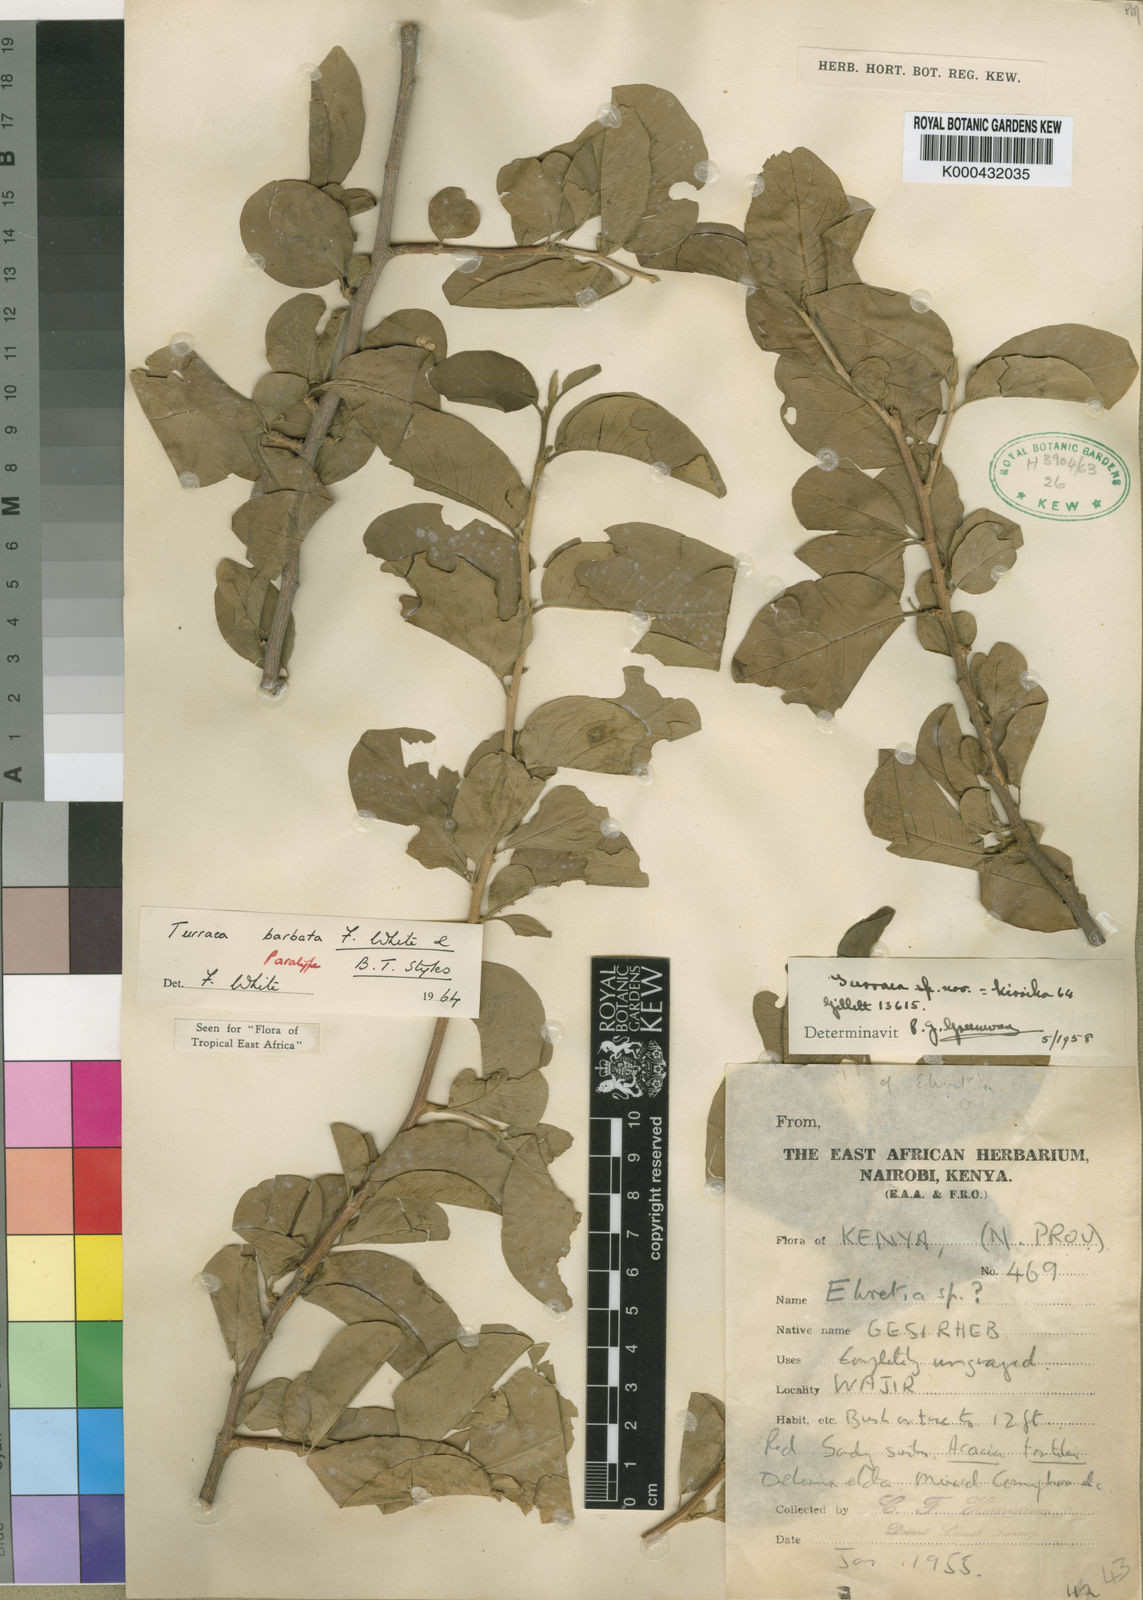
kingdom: Plantae
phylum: Tracheophyta
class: Magnoliopsida
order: Sapindales
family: Meliaceae
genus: Turraea
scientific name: Turraea barbata
